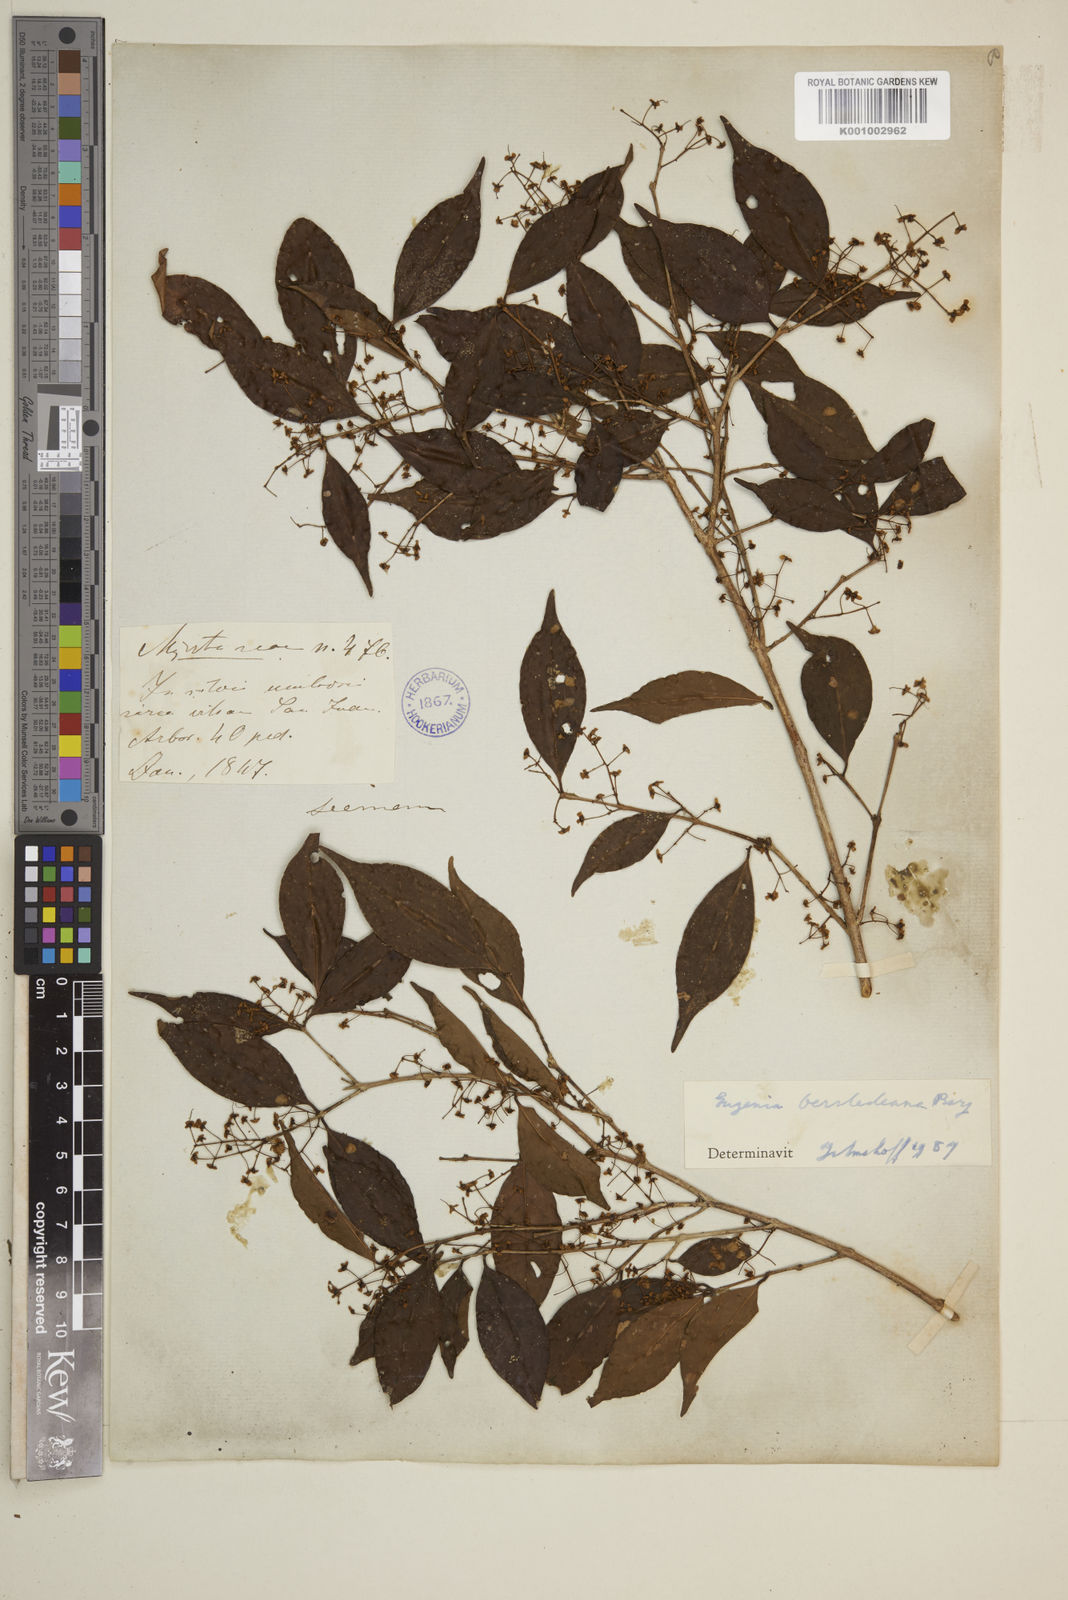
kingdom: Plantae
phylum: Tracheophyta
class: Magnoliopsida
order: Myrtales
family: Myrtaceae
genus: Eugenia
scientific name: Eugenia oerstediana
